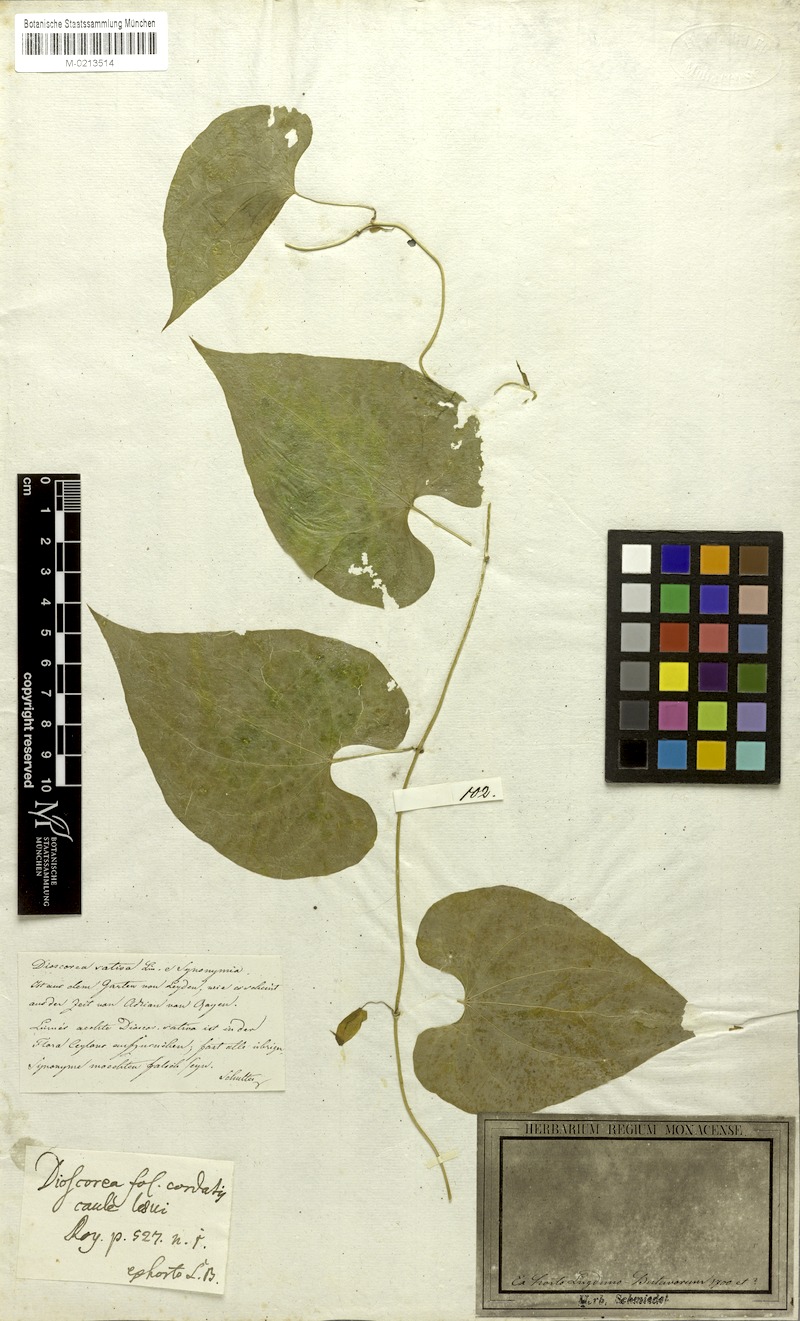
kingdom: Plantae
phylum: Tracheophyta
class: Liliopsida
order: Dioscoreales
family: Dioscoreaceae
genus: Dioscorea
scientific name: Dioscorea villosa
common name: Wild yam
